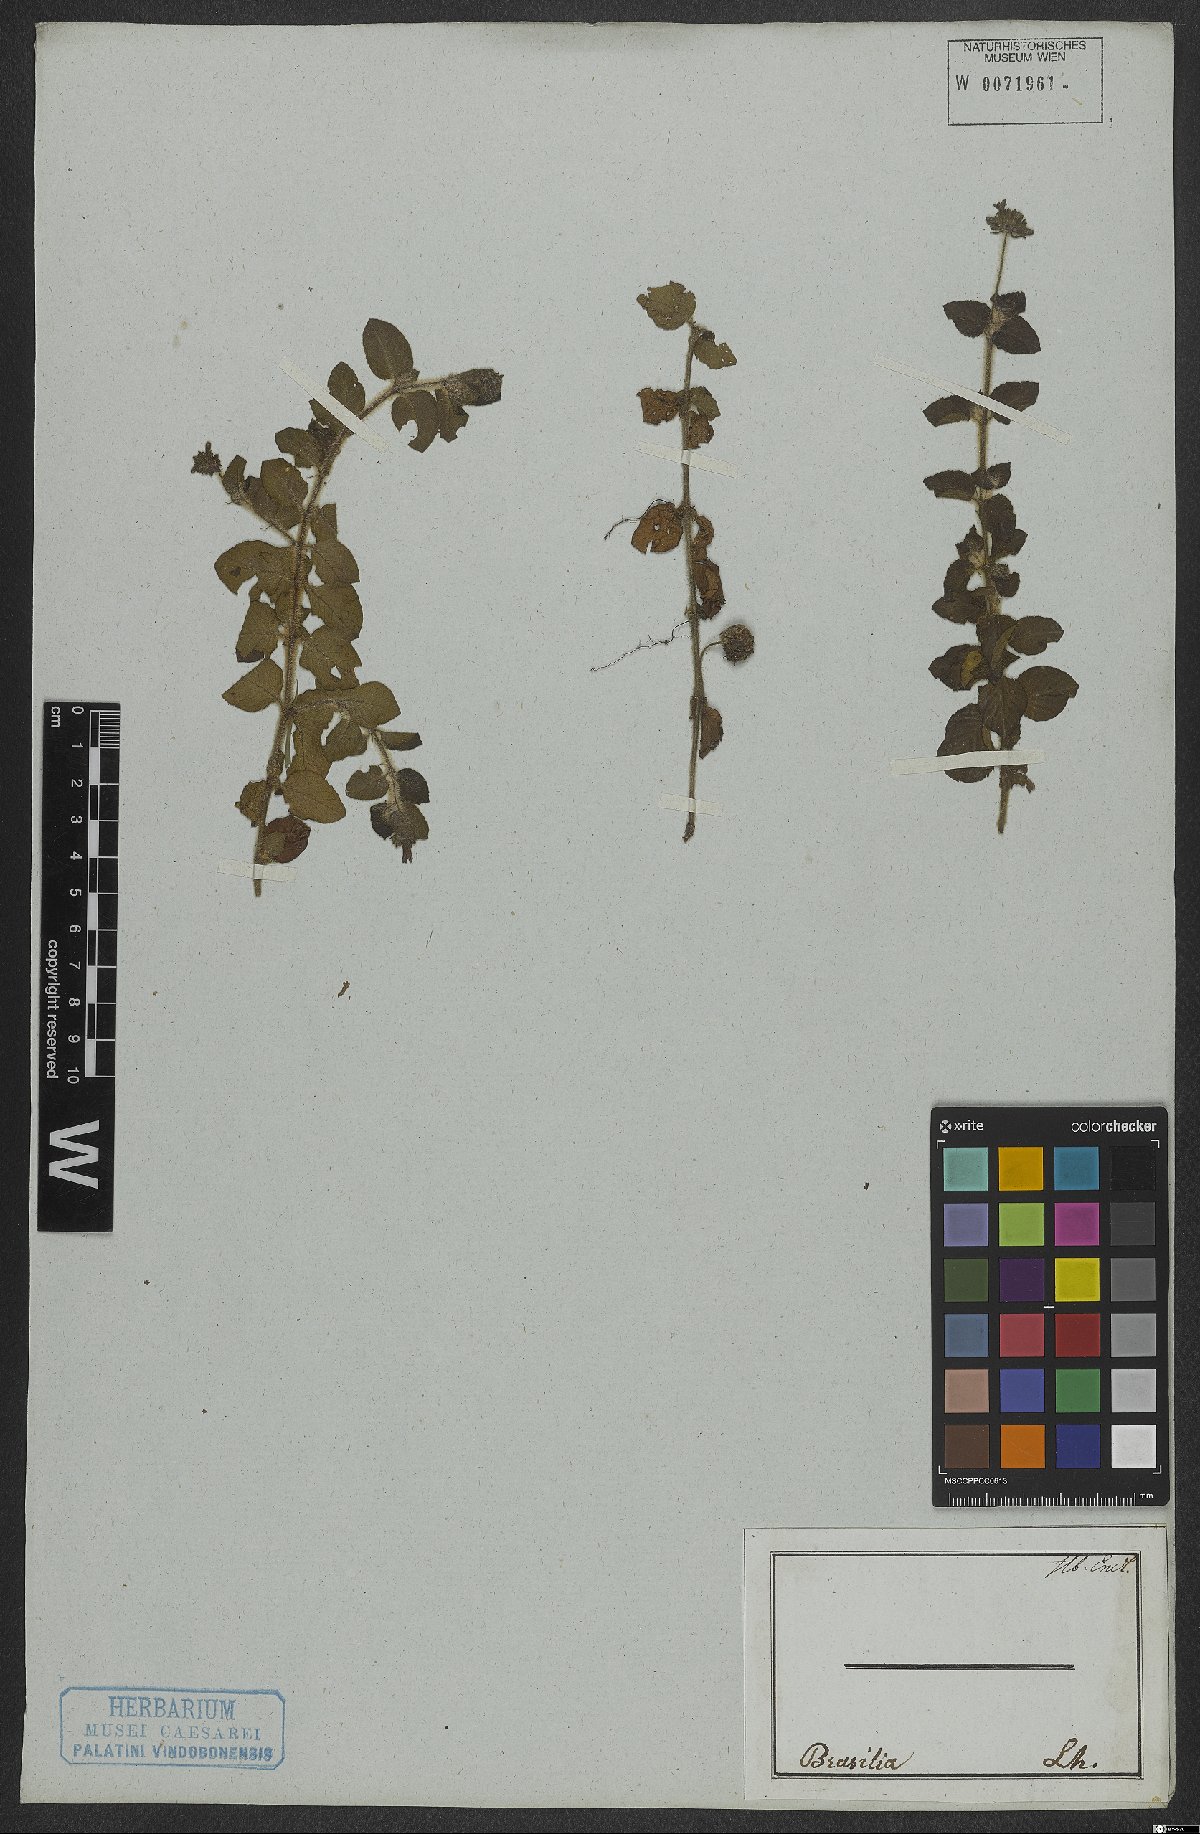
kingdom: Plantae
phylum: Tracheophyta
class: Magnoliopsida
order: Gentianales
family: Rubiaceae
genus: Coccocypselum
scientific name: Coccocypselum
